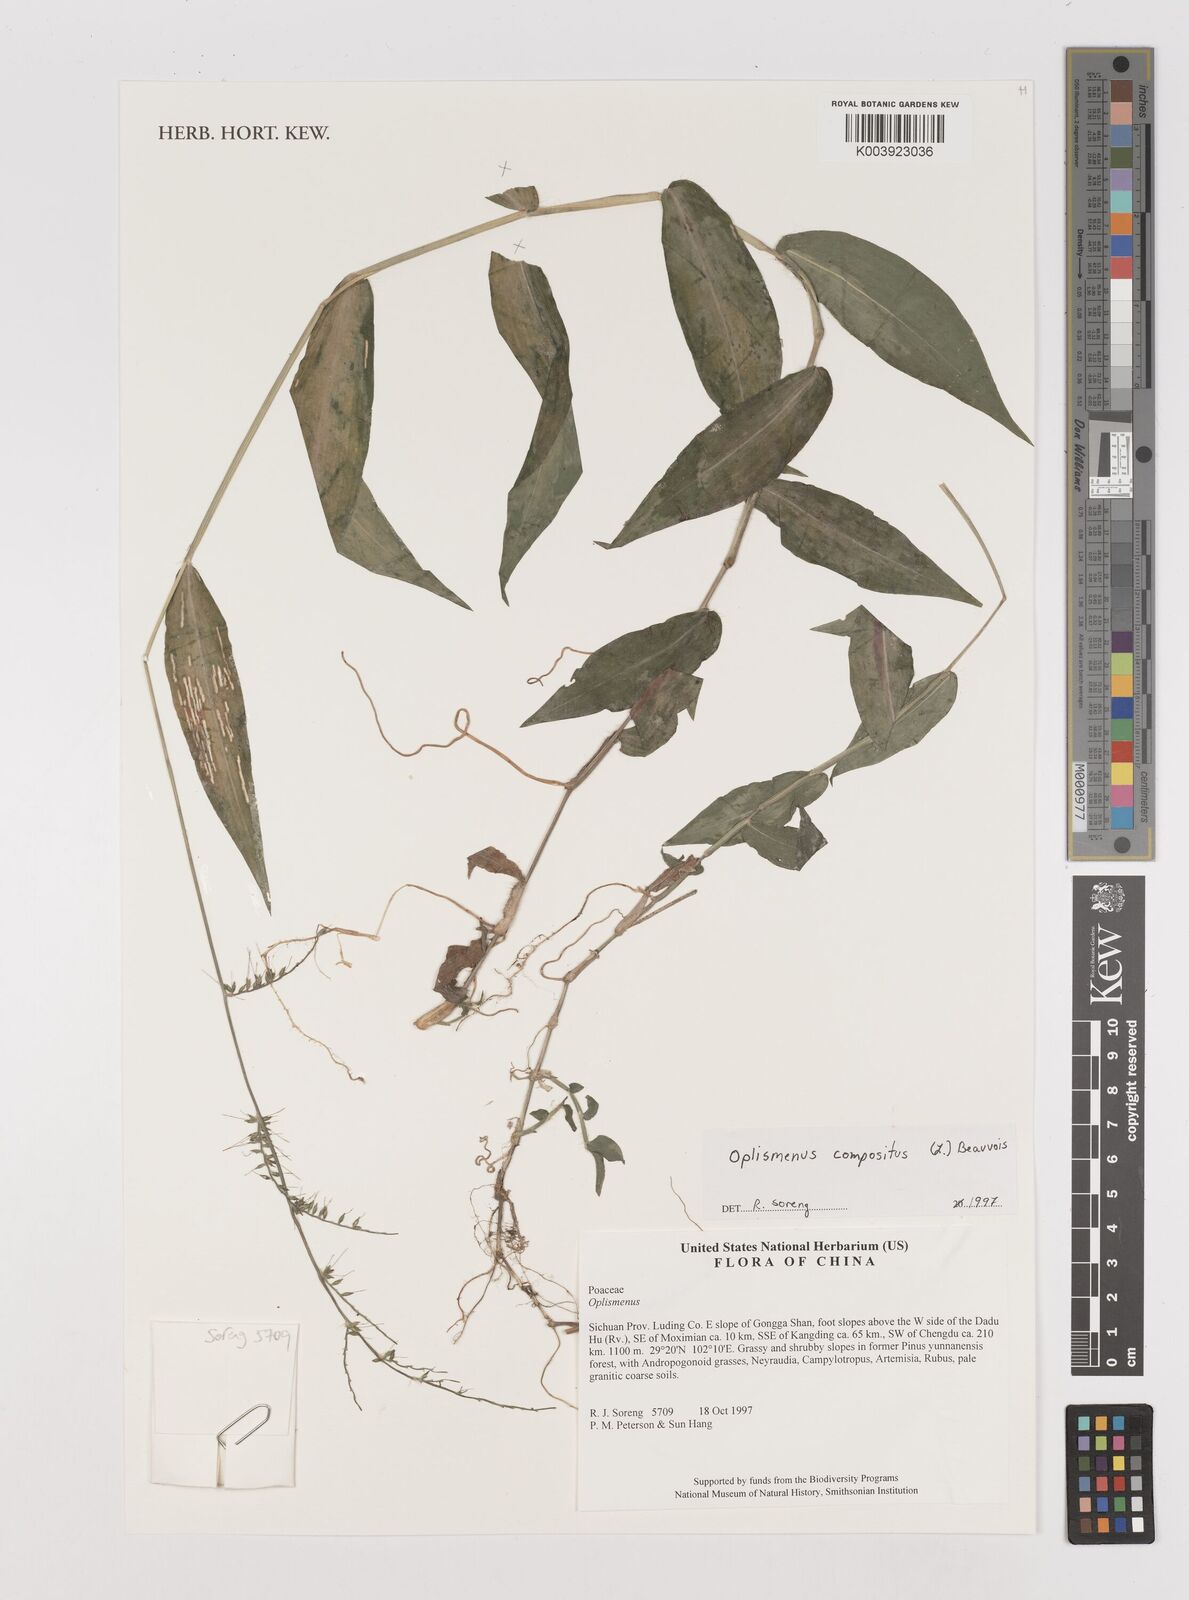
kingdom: Plantae
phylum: Tracheophyta
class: Liliopsida
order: Poales
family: Poaceae
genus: Oplismenus
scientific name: Oplismenus compositus
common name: Running mountain grass
